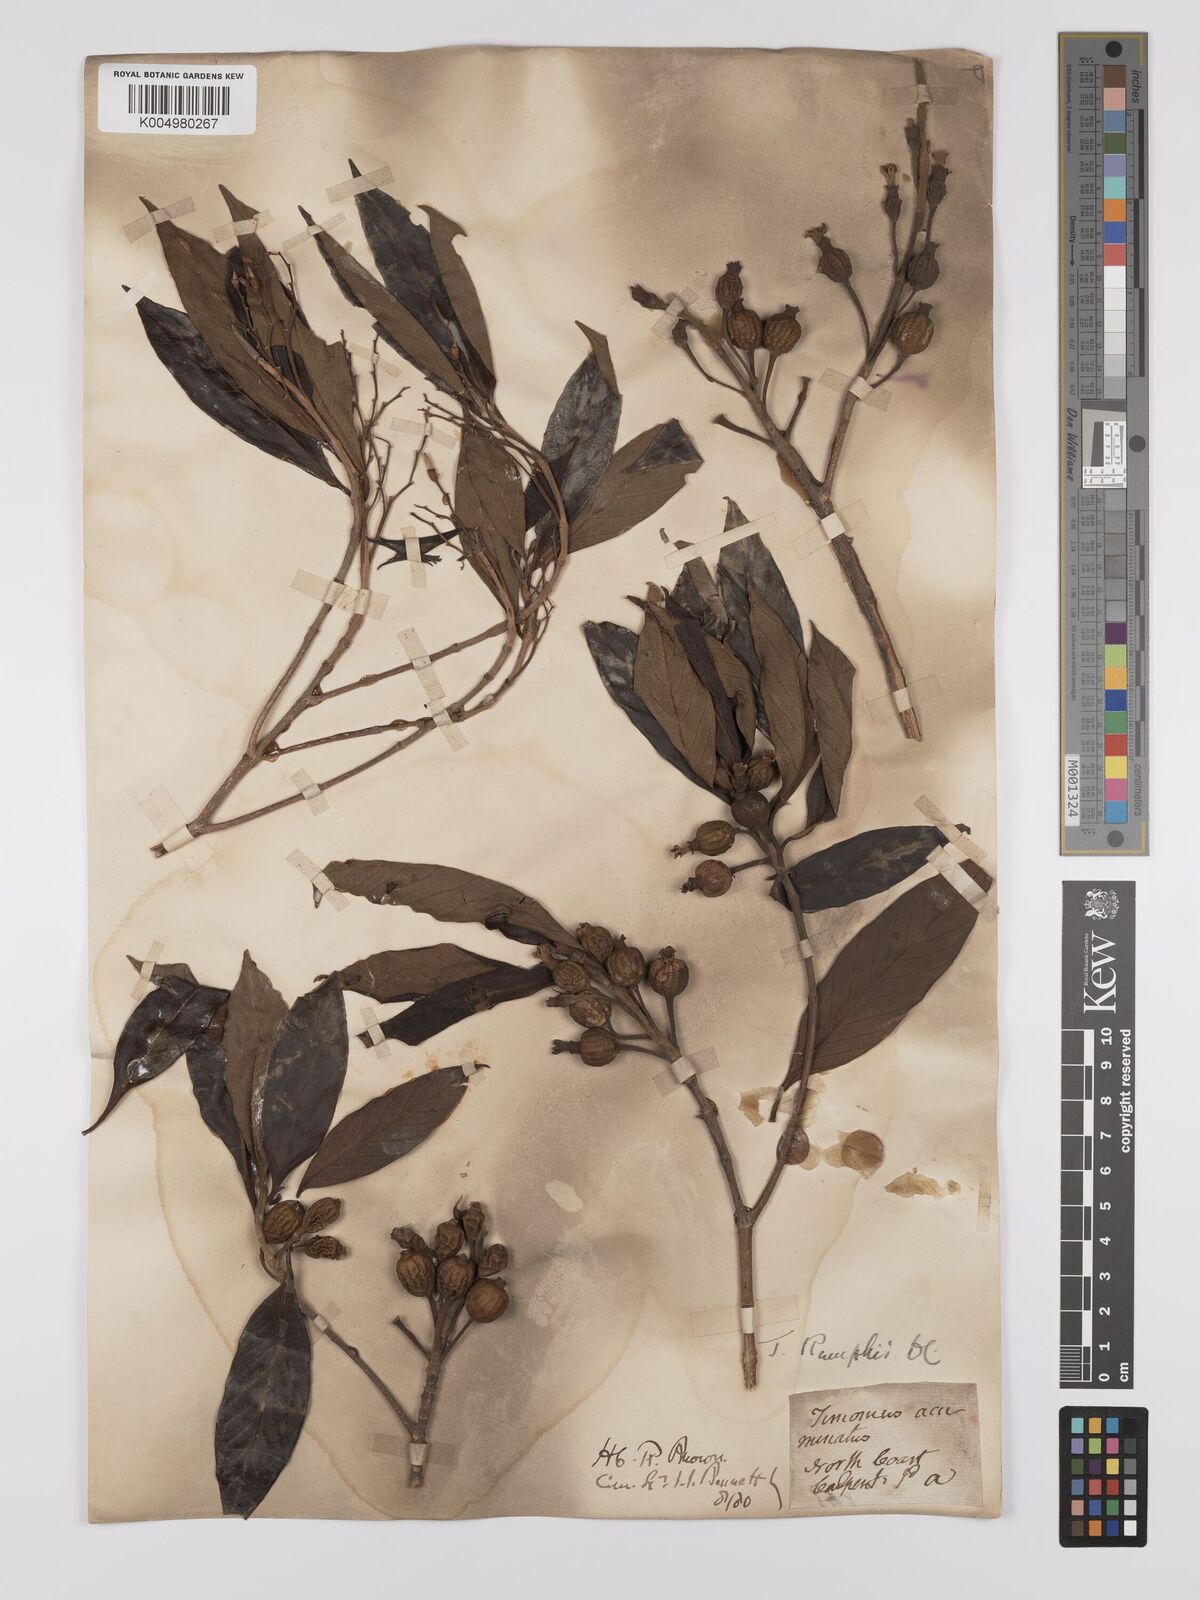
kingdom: Plantae
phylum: Tracheophyta
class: Magnoliopsida
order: Gentianales
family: Rubiaceae
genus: Timonius
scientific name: Timonius timon
